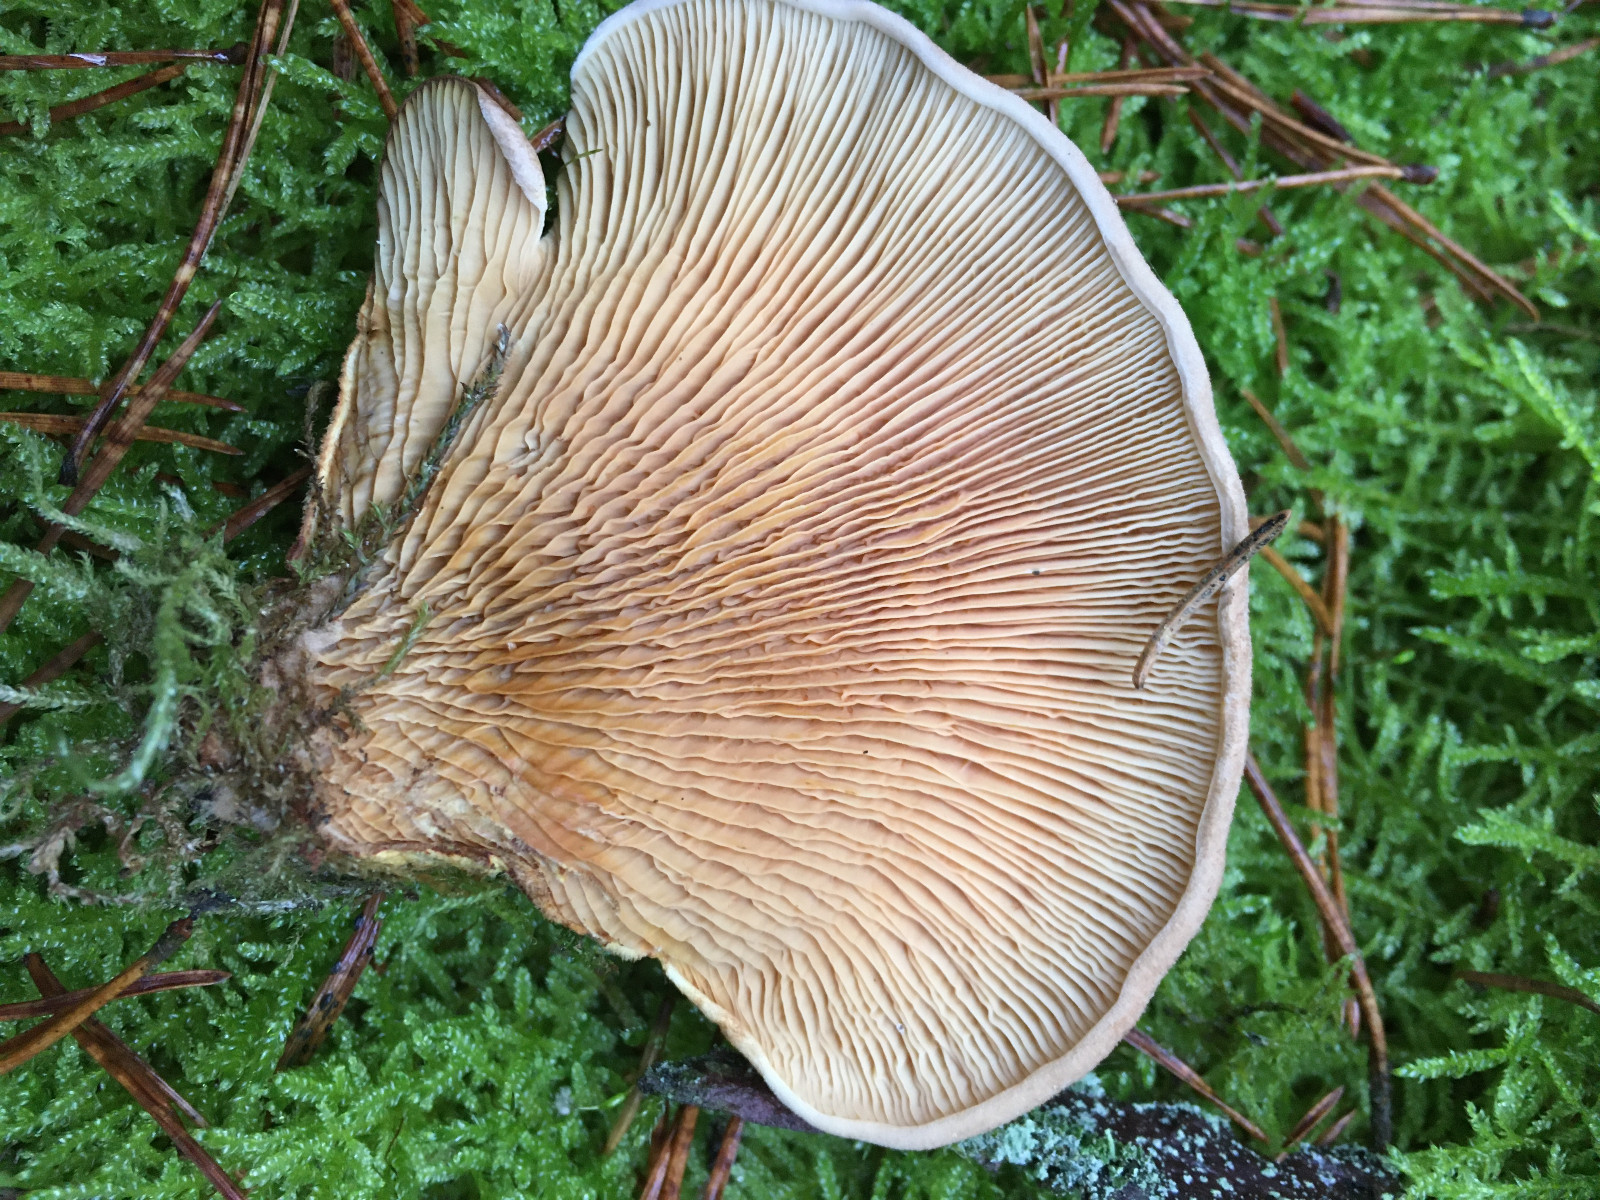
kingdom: Fungi
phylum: Basidiomycota
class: Agaricomycetes
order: Boletales
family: Tapinellaceae
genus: Tapinella
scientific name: Tapinella panuoides
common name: tømmer-viftesvamp
